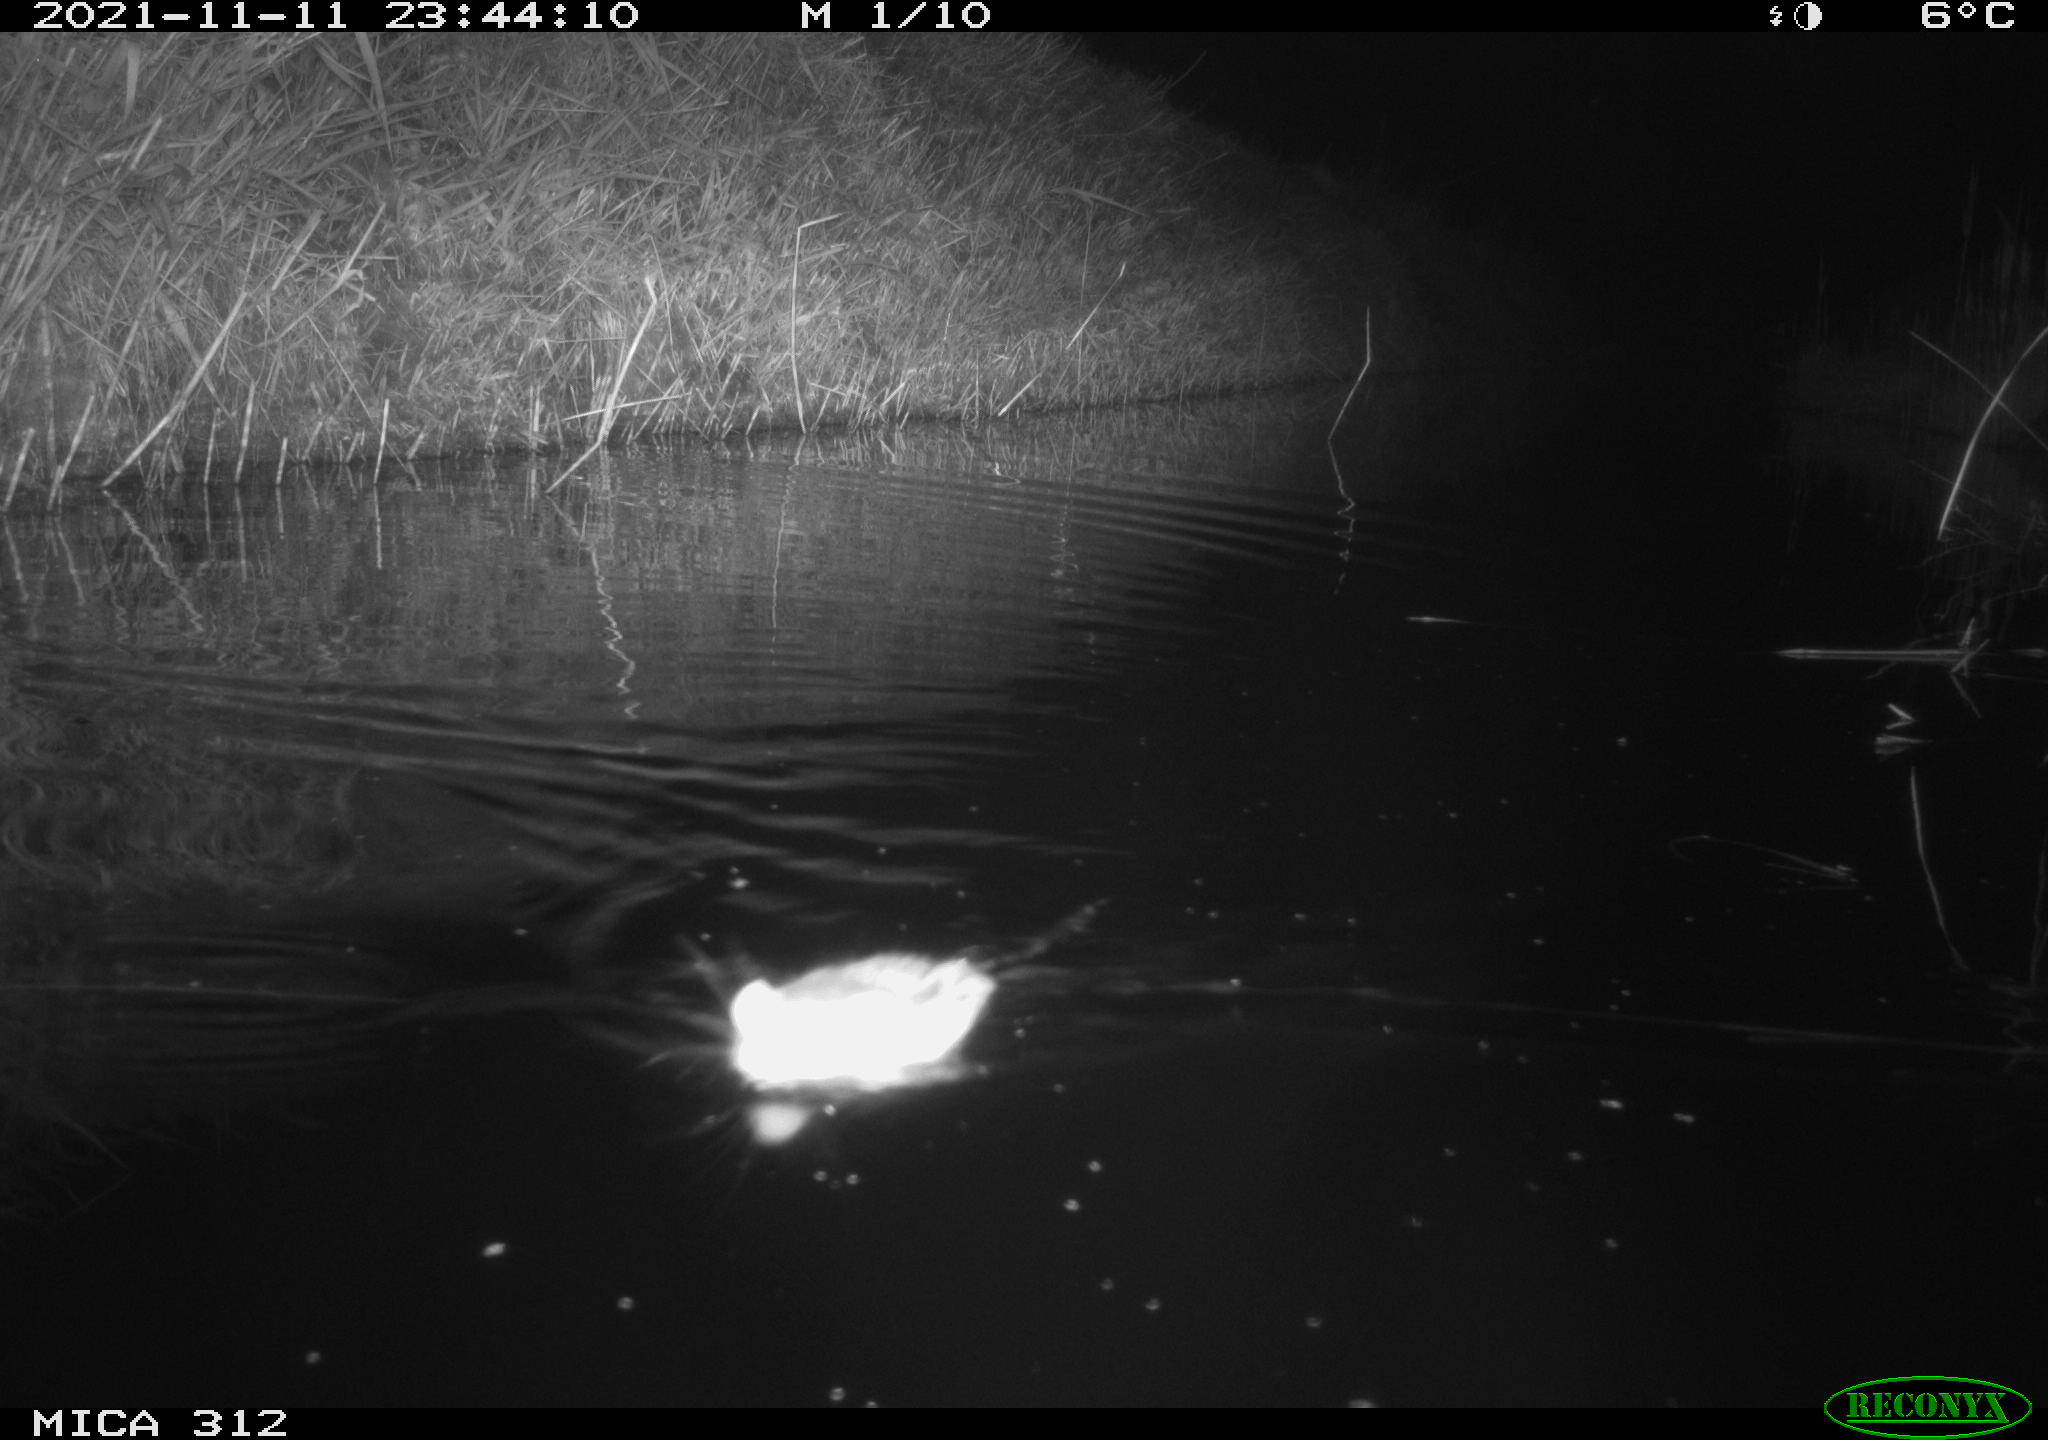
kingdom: Animalia
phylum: Chordata
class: Mammalia
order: Rodentia
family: Cricetidae
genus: Ondatra
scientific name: Ondatra zibethicus
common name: Muskrat
